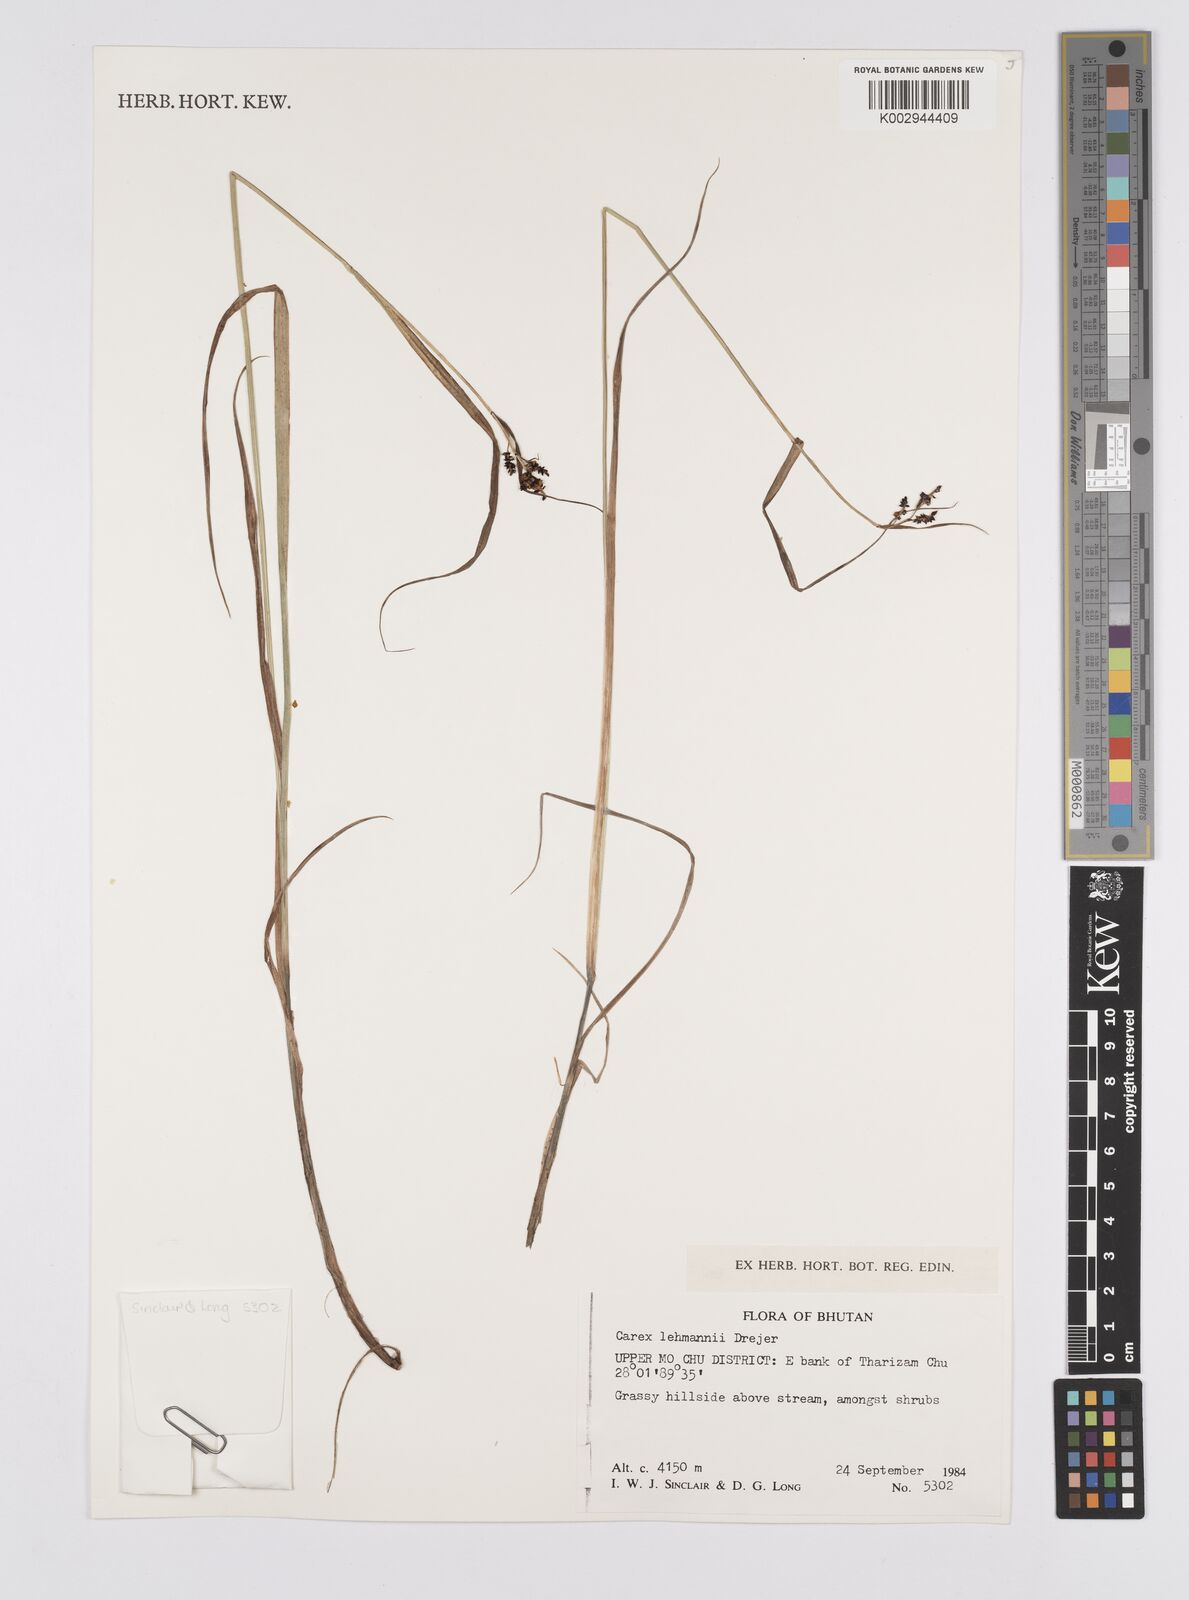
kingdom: Plantae
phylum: Tracheophyta
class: Liliopsida
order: Poales
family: Cyperaceae
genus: Carex
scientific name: Carex lehmannii
